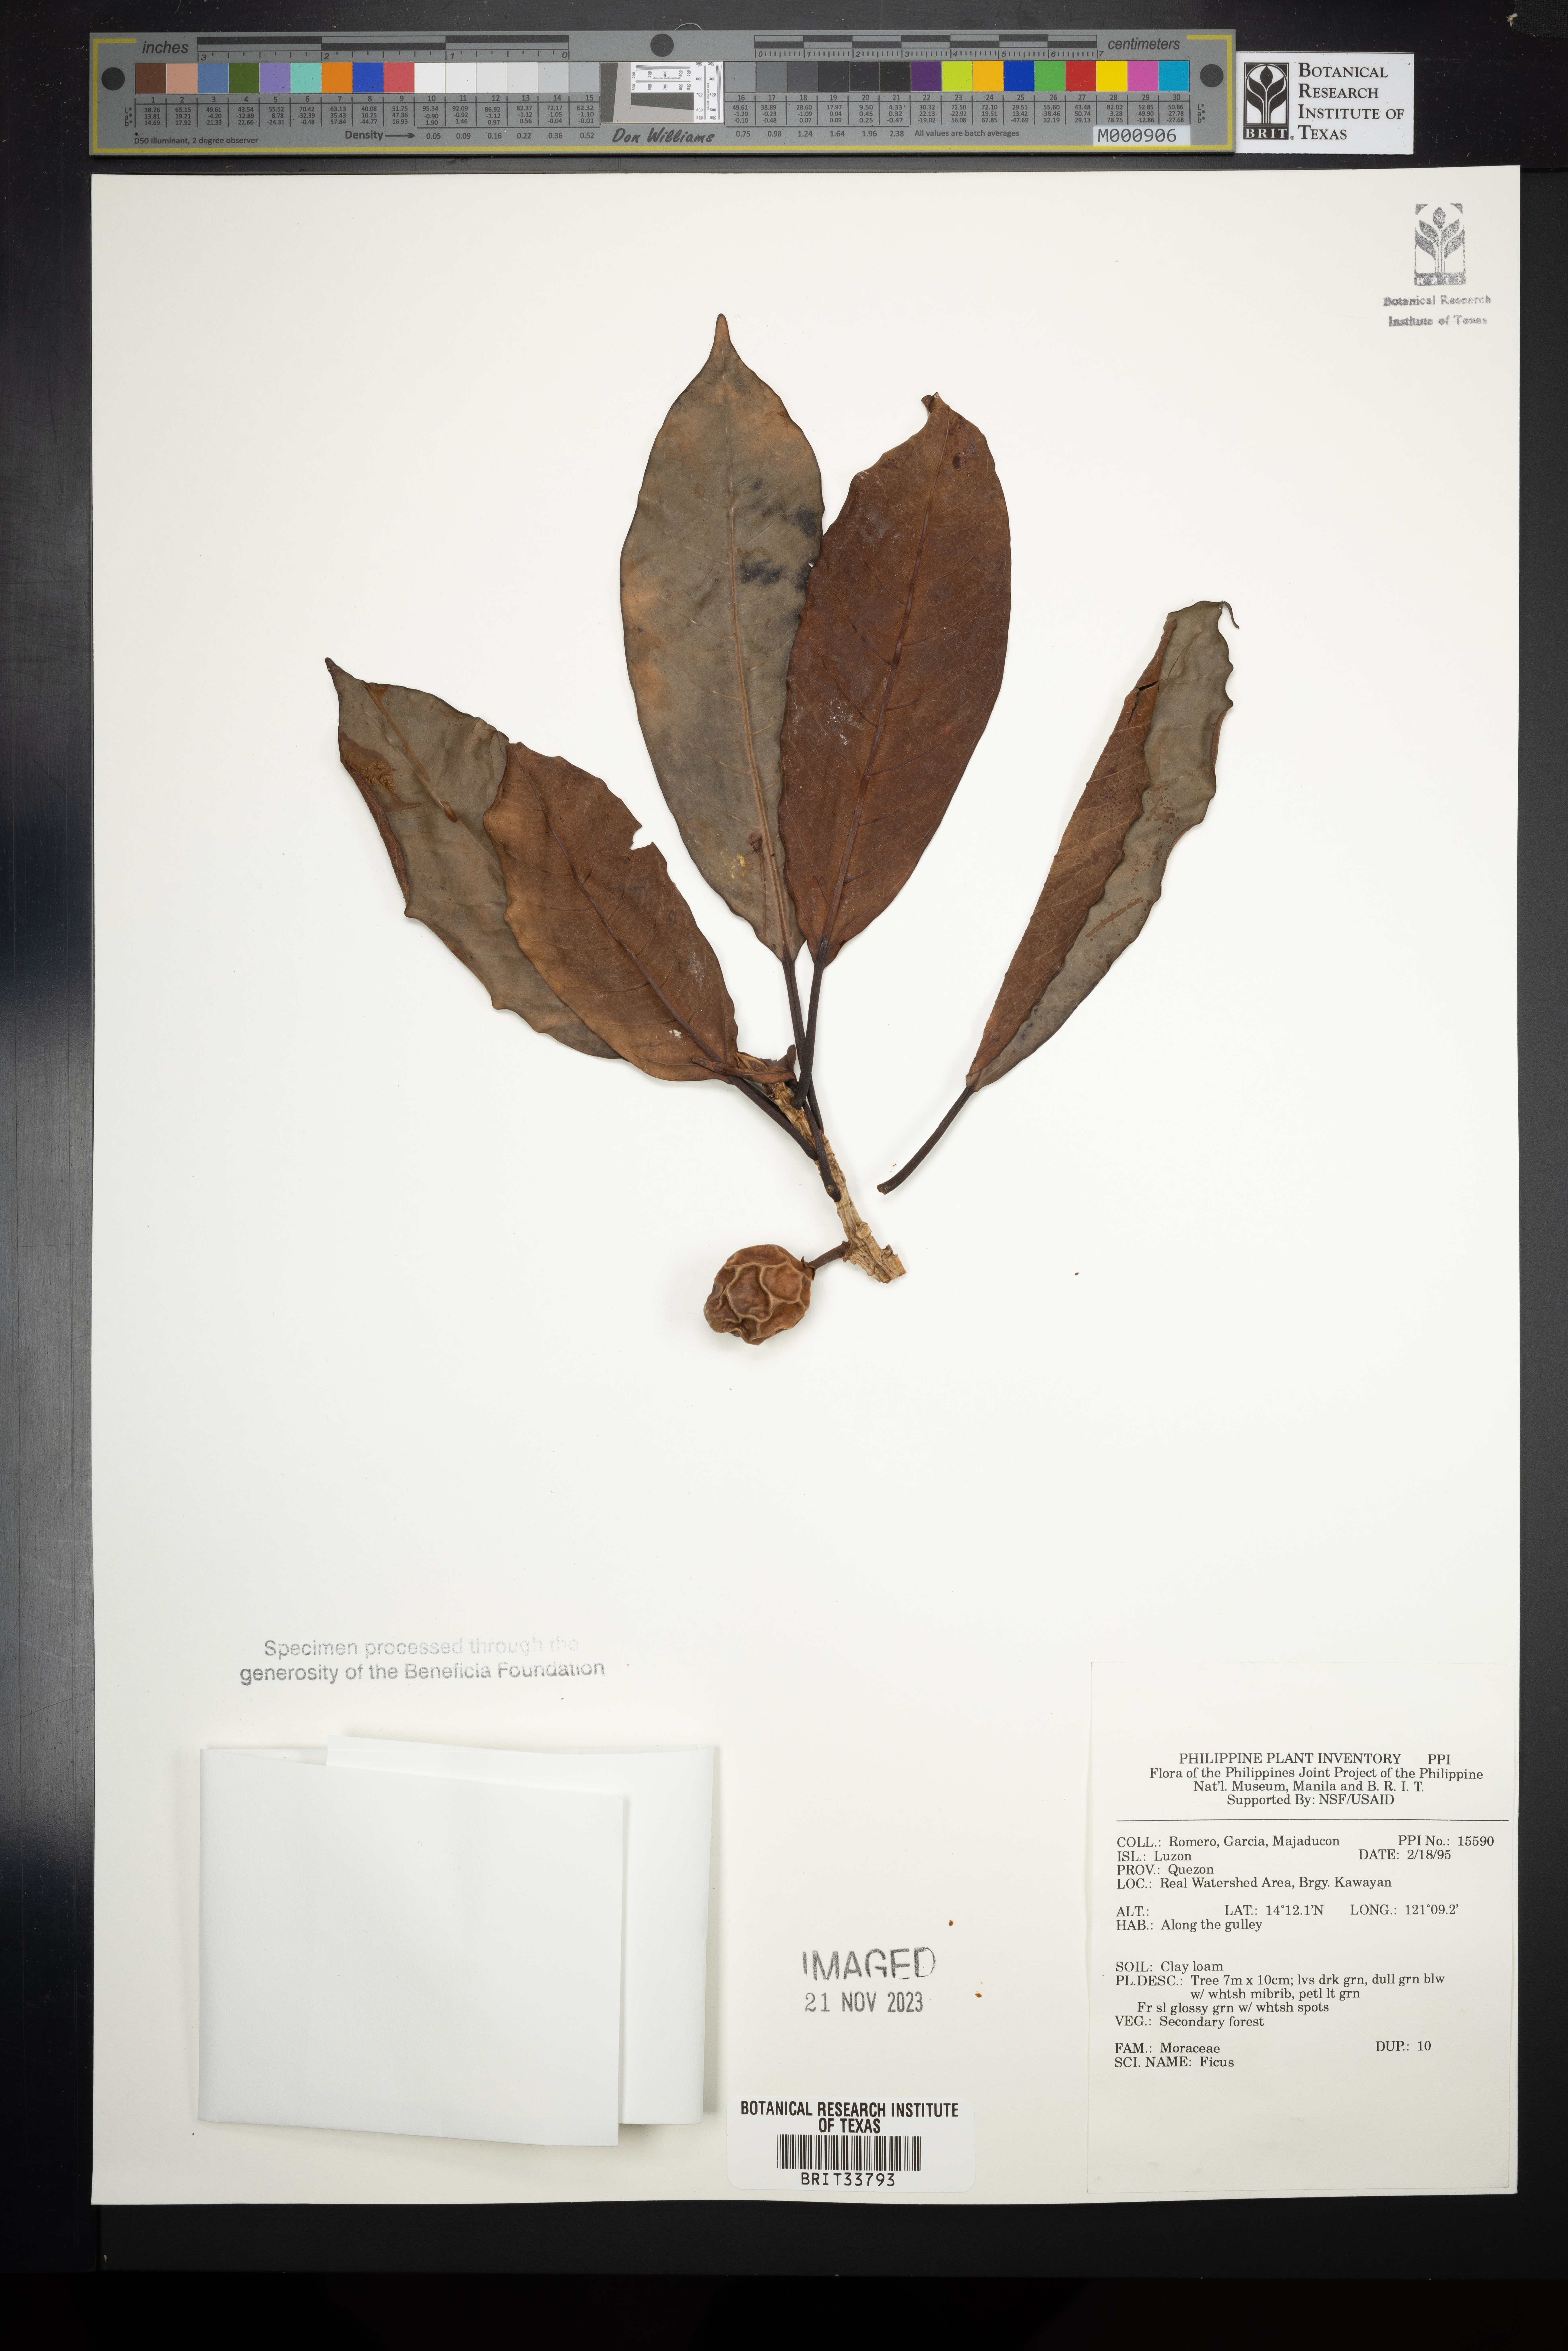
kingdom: Plantae
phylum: Tracheophyta
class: Magnoliopsida
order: Rosales
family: Moraceae
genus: Ficus
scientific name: Ficus
